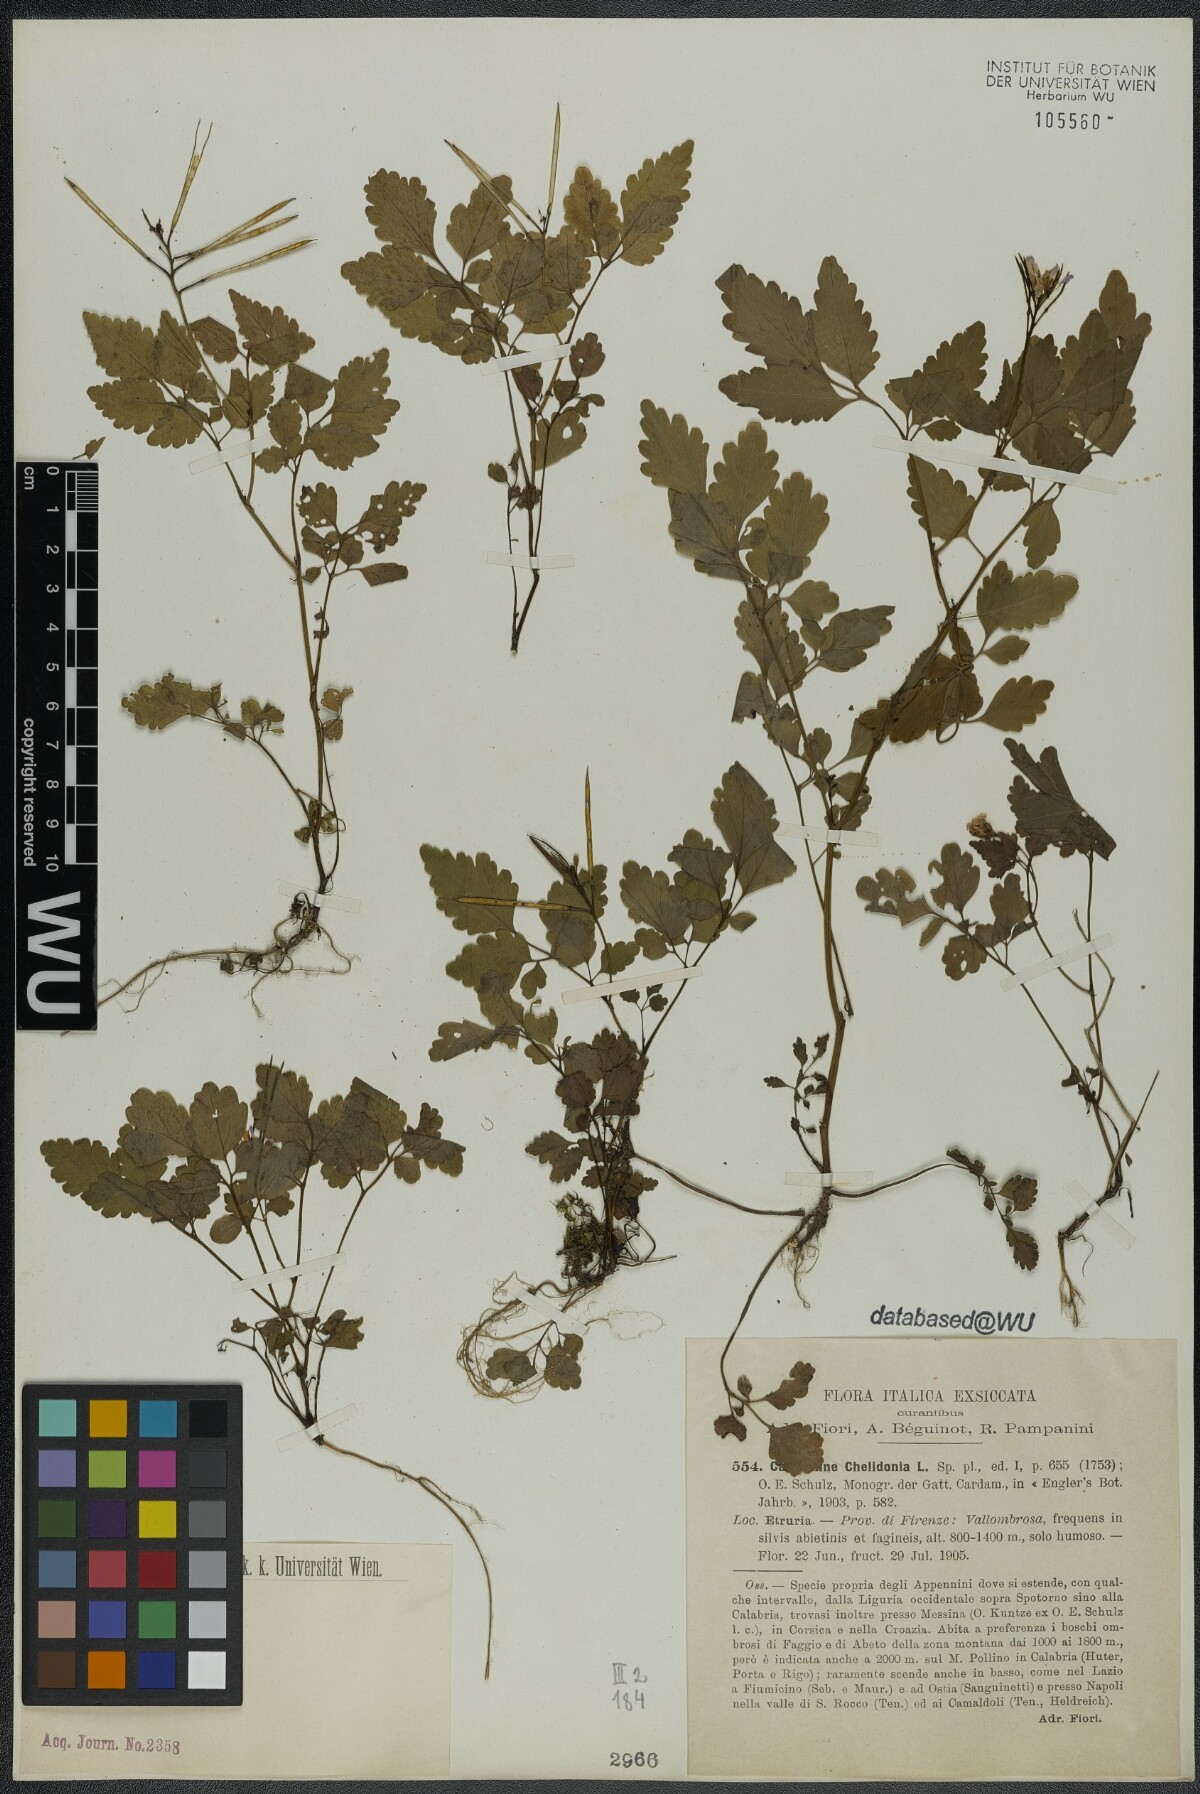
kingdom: Plantae
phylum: Tracheophyta
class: Magnoliopsida
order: Brassicales
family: Brassicaceae
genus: Cardamine
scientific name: Cardamine chelidonia
